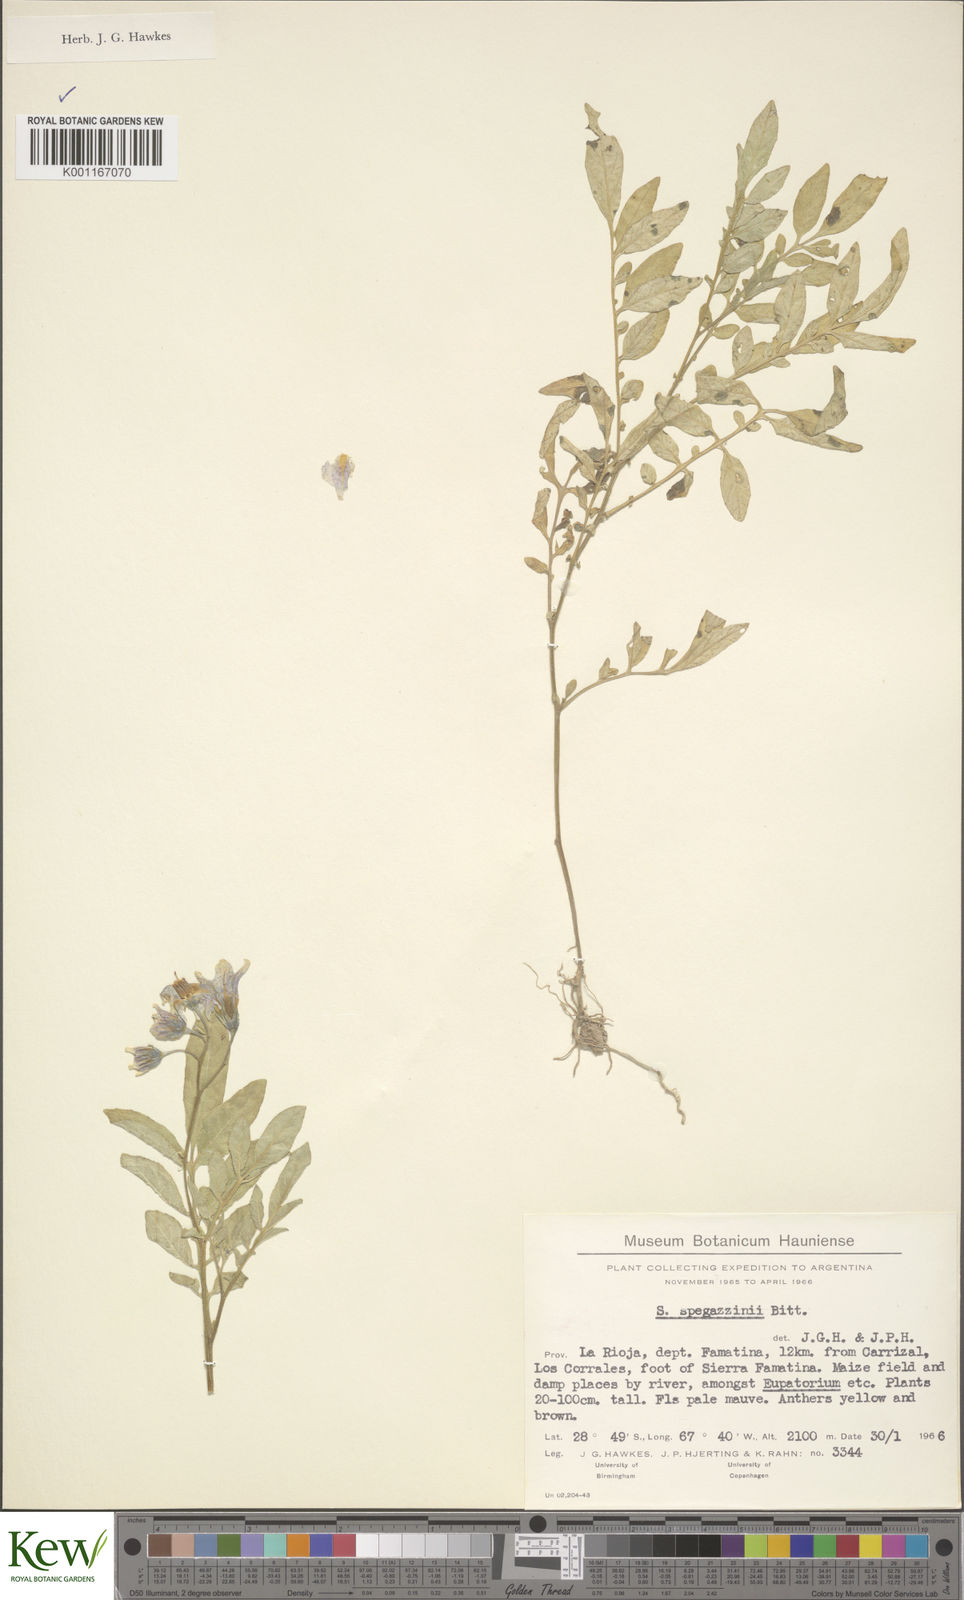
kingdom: Plantae
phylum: Tracheophyta
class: Magnoliopsida
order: Solanales
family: Solanaceae
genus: Solanum
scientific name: Solanum brevicaule
